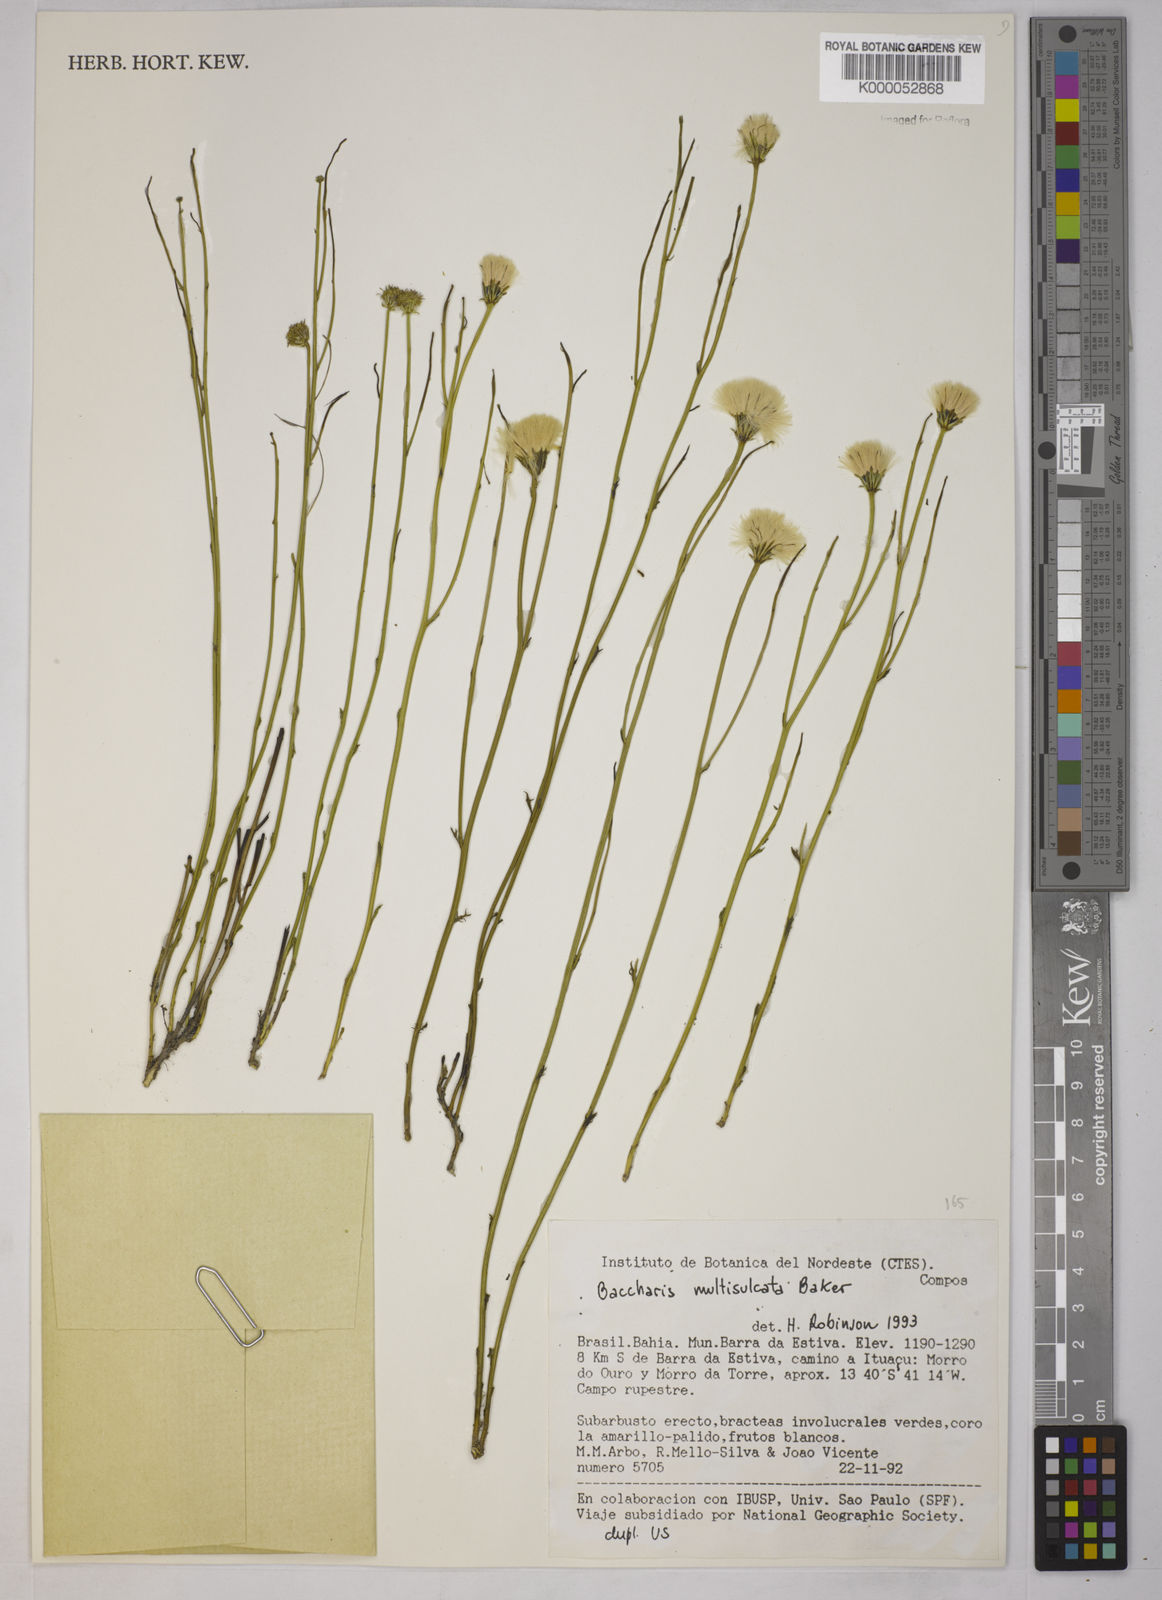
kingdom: Plantae
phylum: Tracheophyta
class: Magnoliopsida
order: Asterales
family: Asteraceae
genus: Baccharis
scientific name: Baccharis orbignyana
